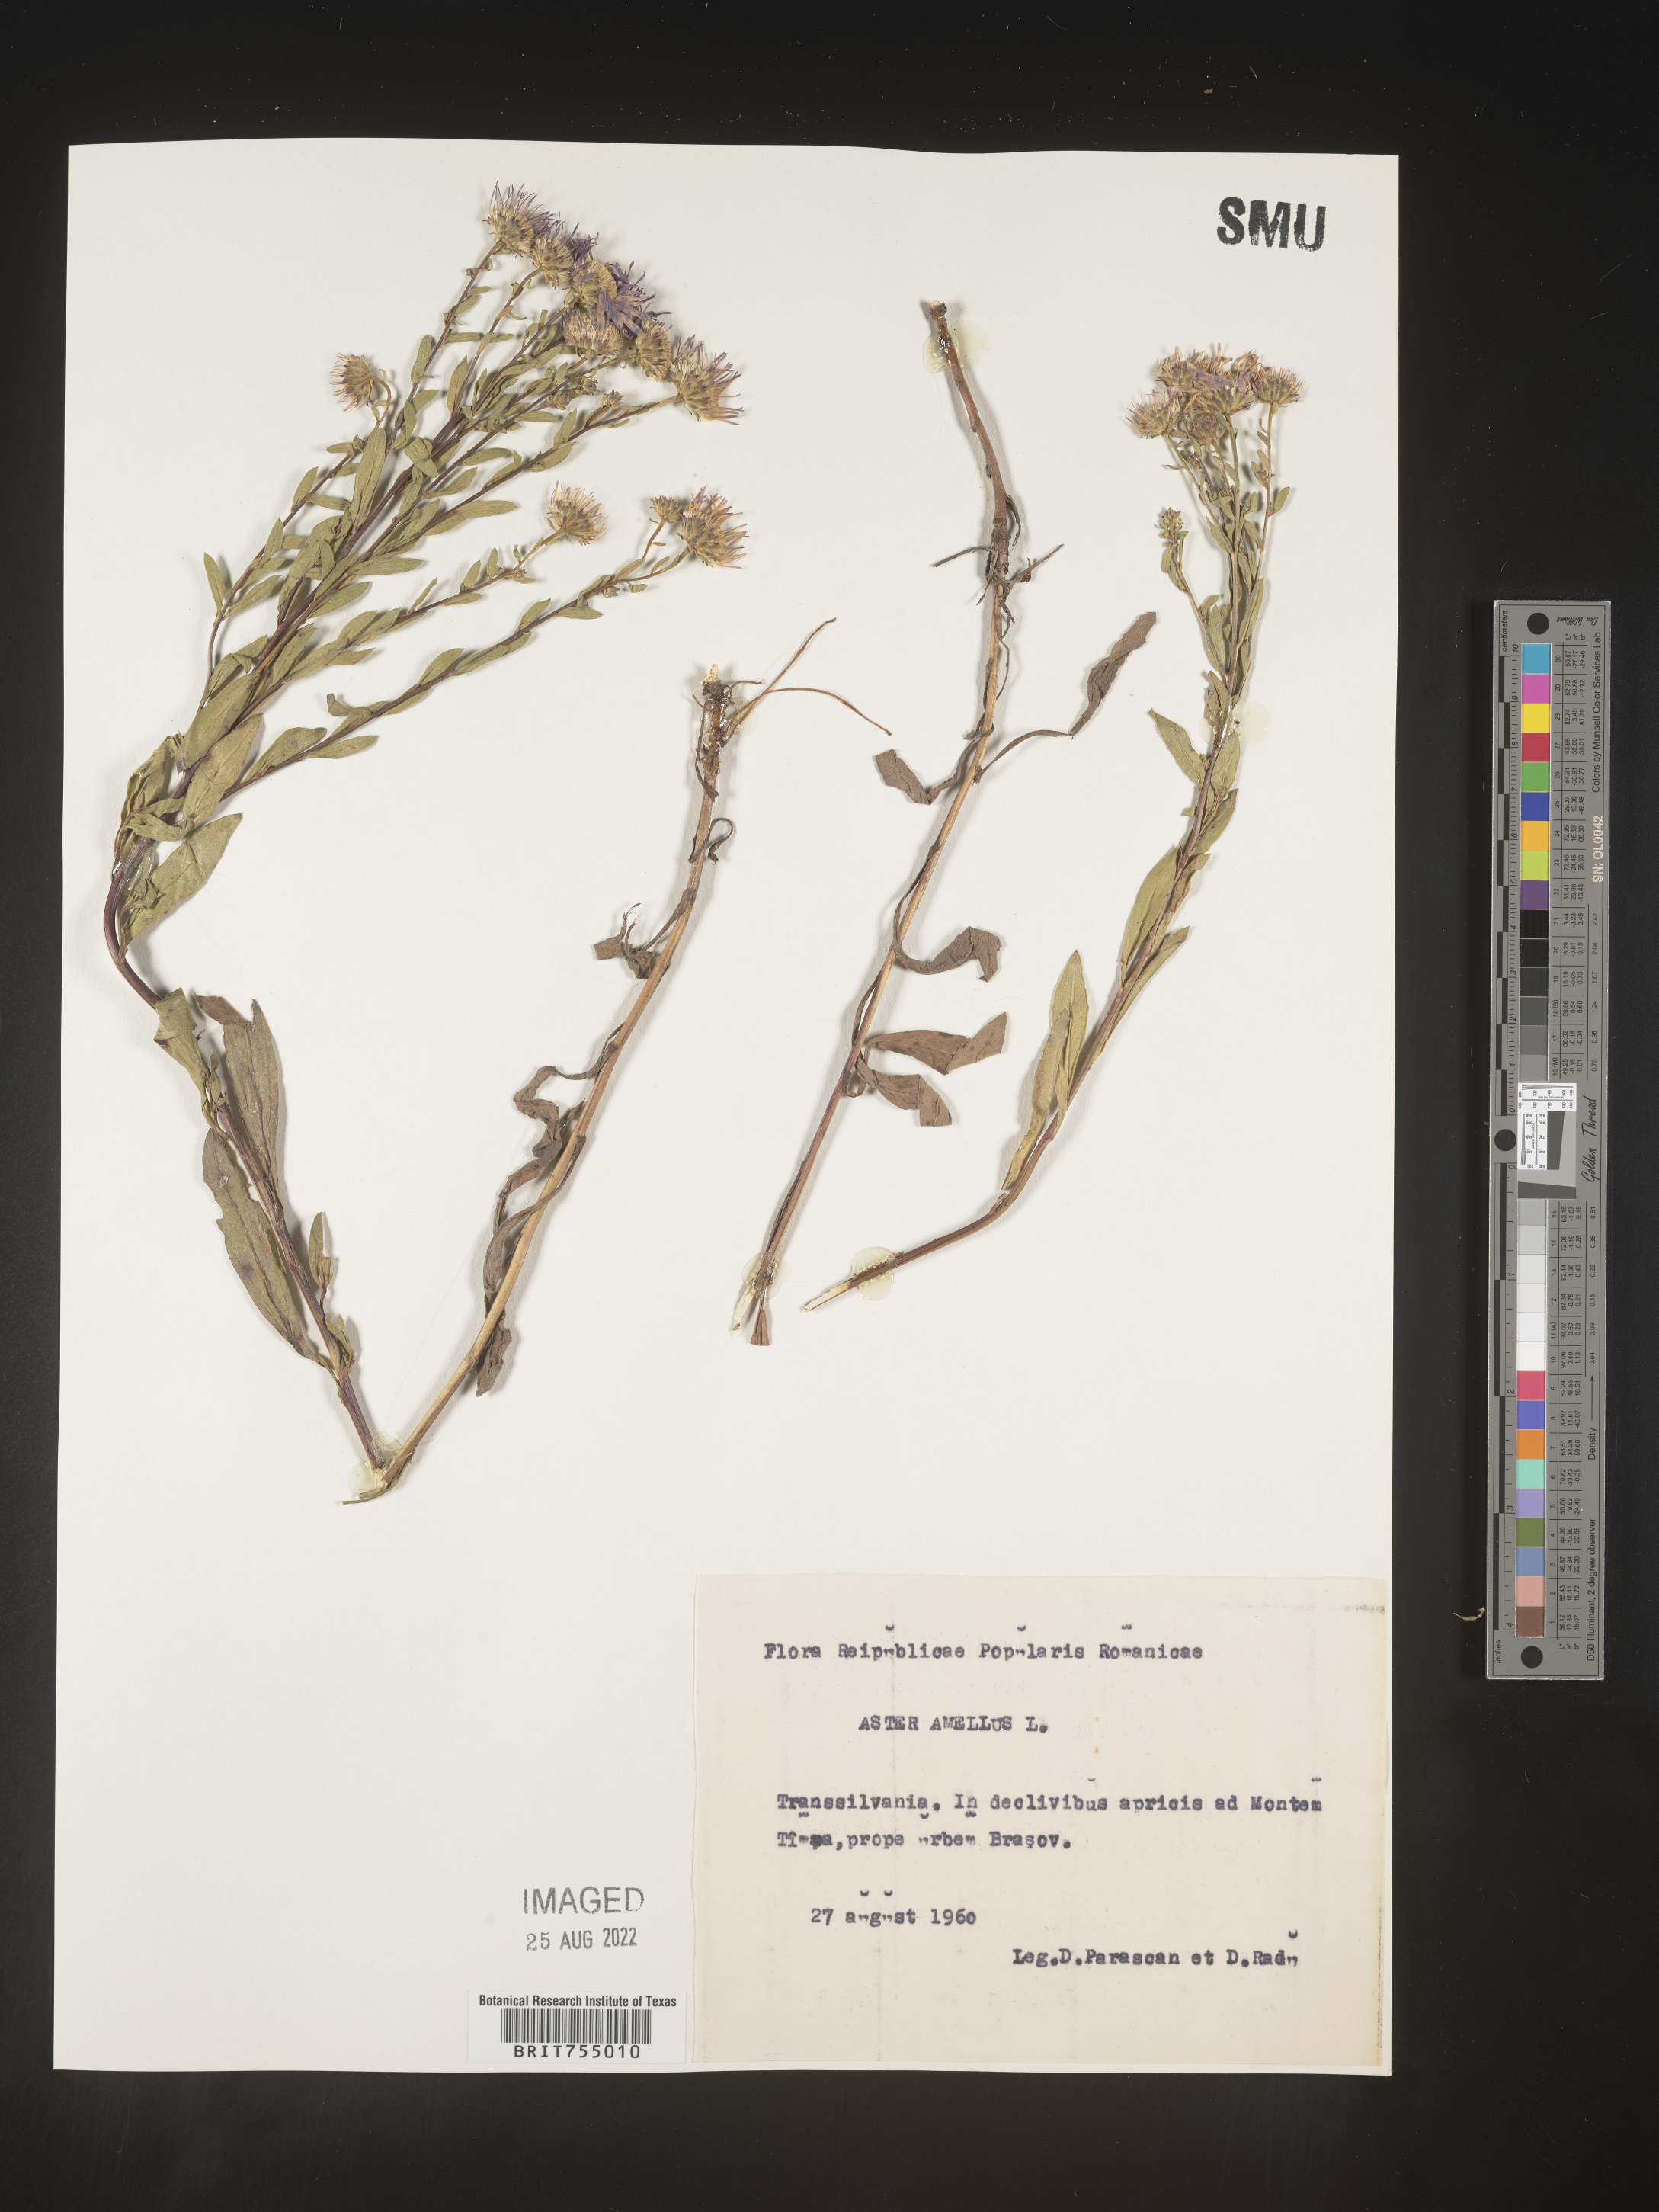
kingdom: Plantae
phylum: Tracheophyta
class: Magnoliopsida
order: Asterales
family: Asteraceae
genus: Symphyotrichum
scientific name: Symphyotrichum
